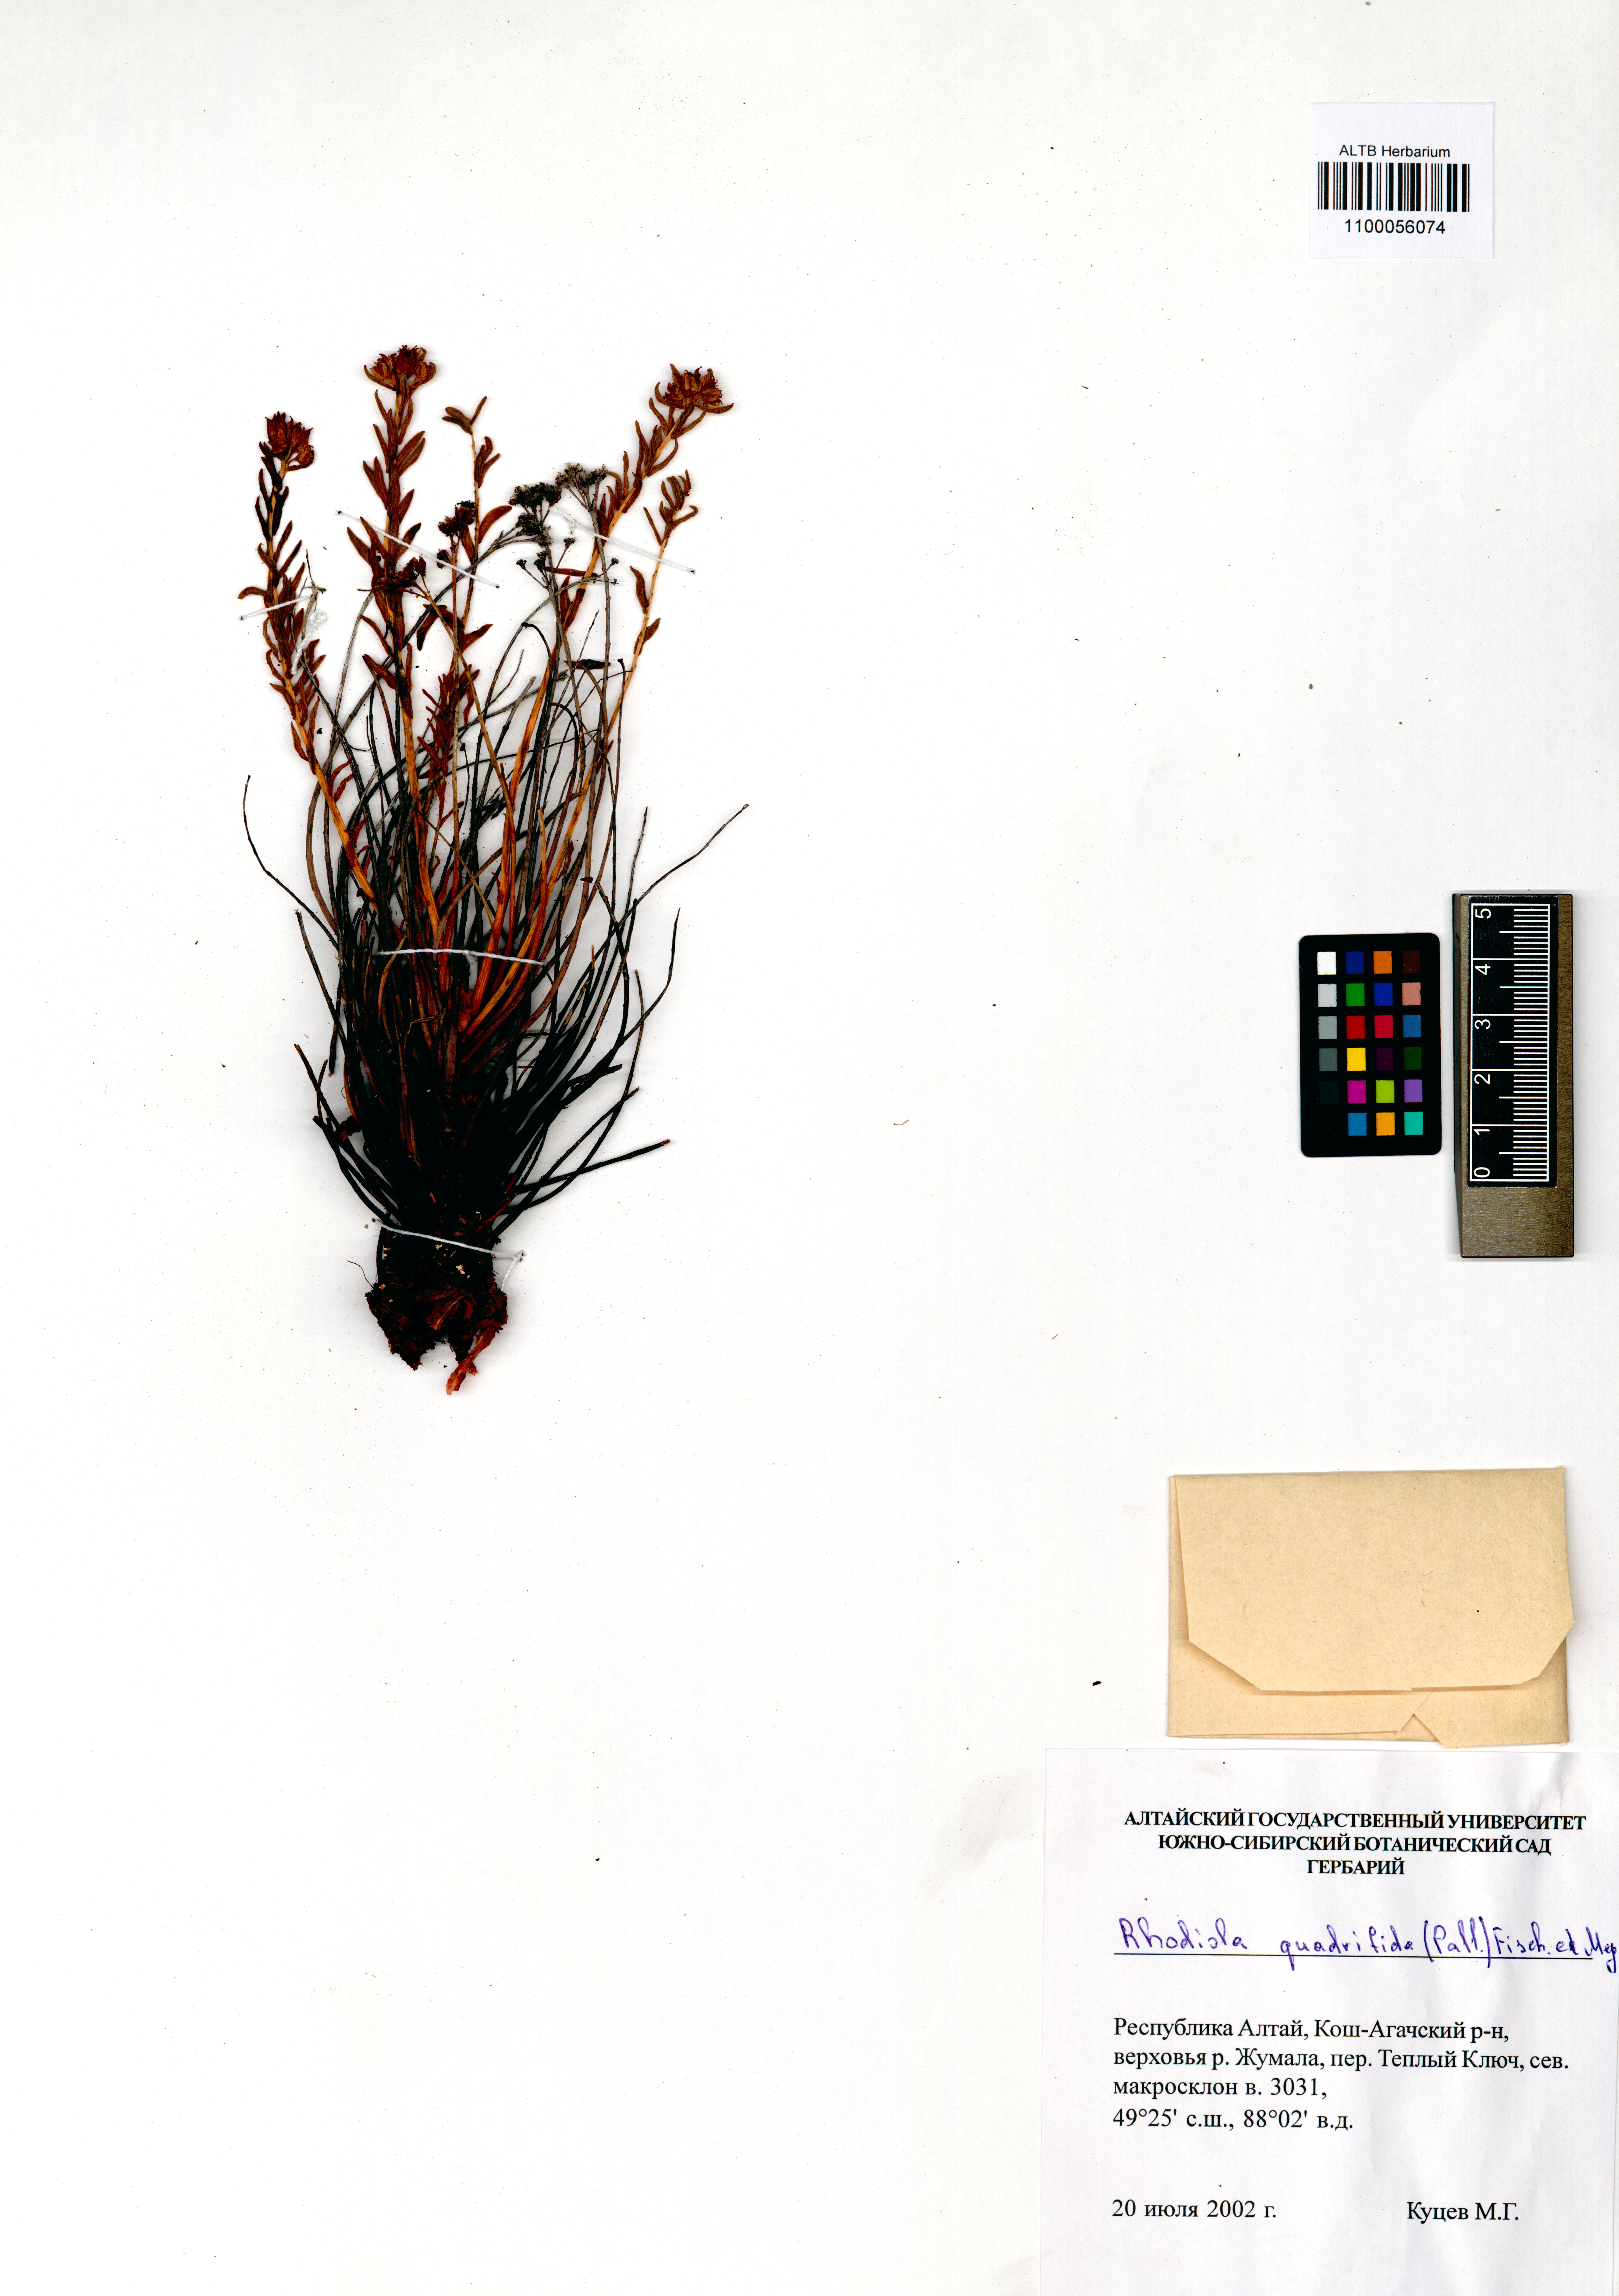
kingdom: Plantae
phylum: Tracheophyta
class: Magnoliopsida
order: Saxifragales
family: Crassulaceae
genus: Rhodiola
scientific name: Rhodiola quadrifida
